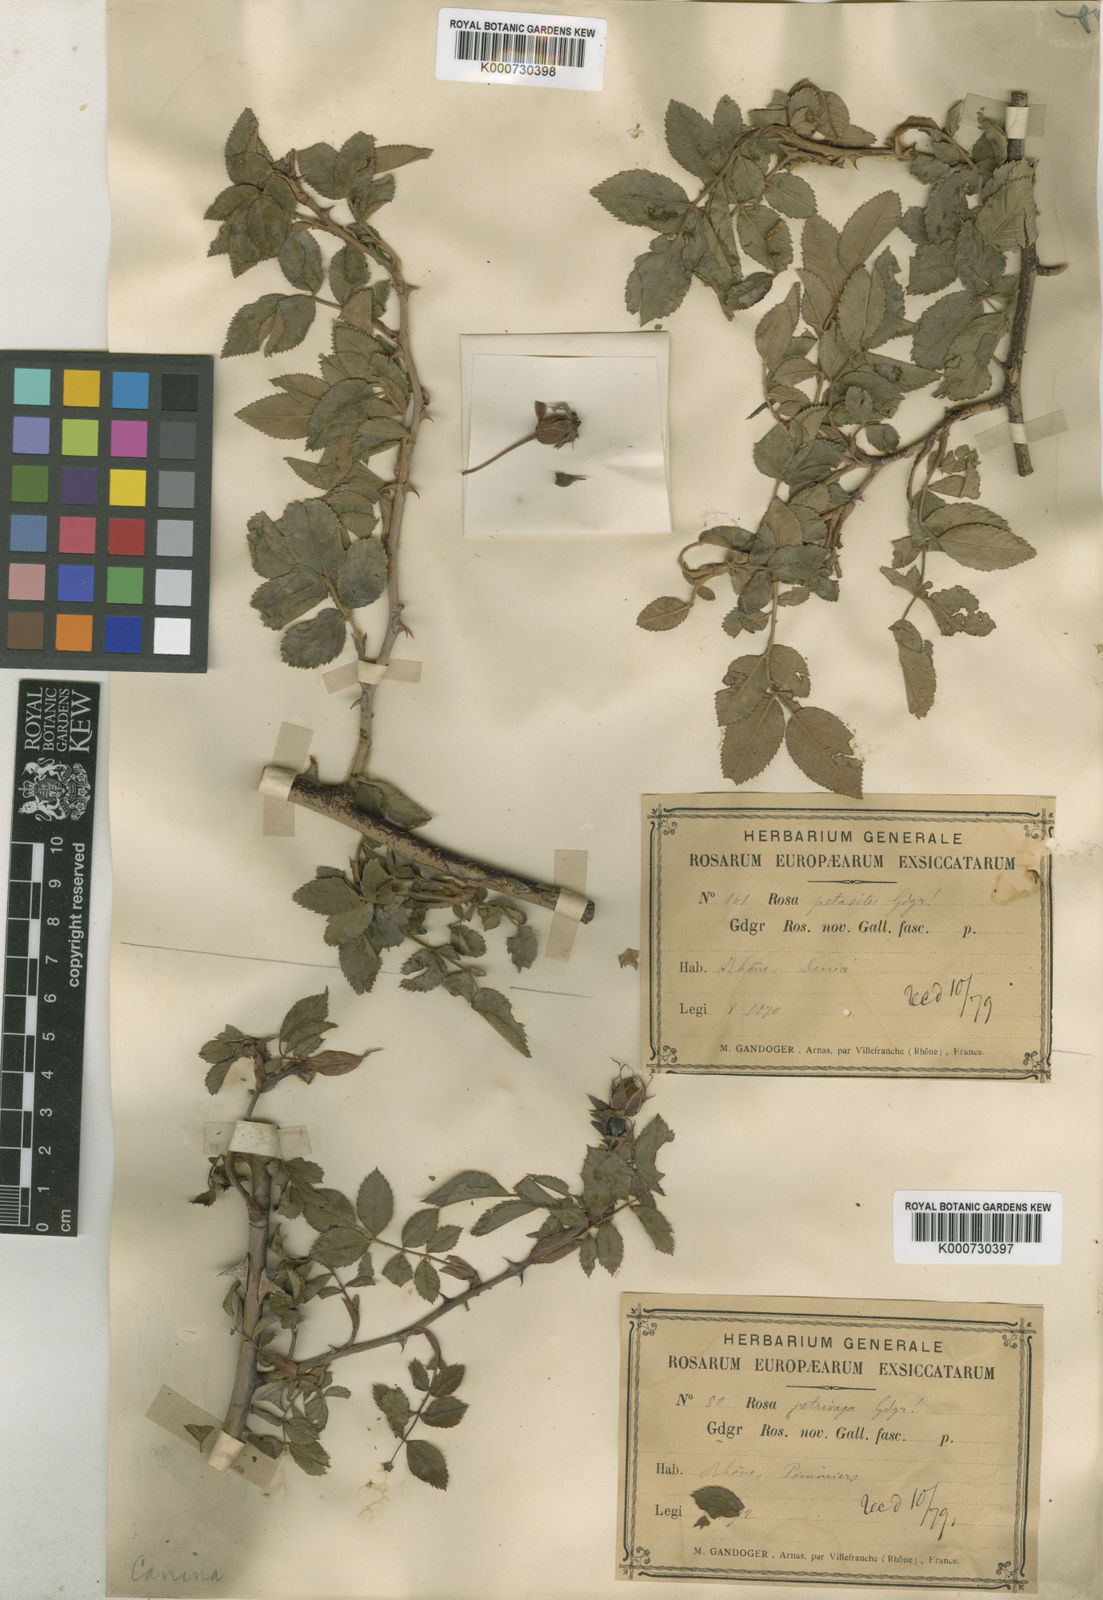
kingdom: Plantae
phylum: Tracheophyta
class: Magnoliopsida
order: Rosales
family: Rosaceae
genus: Rosa
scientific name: Rosa canina
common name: Dog rose
